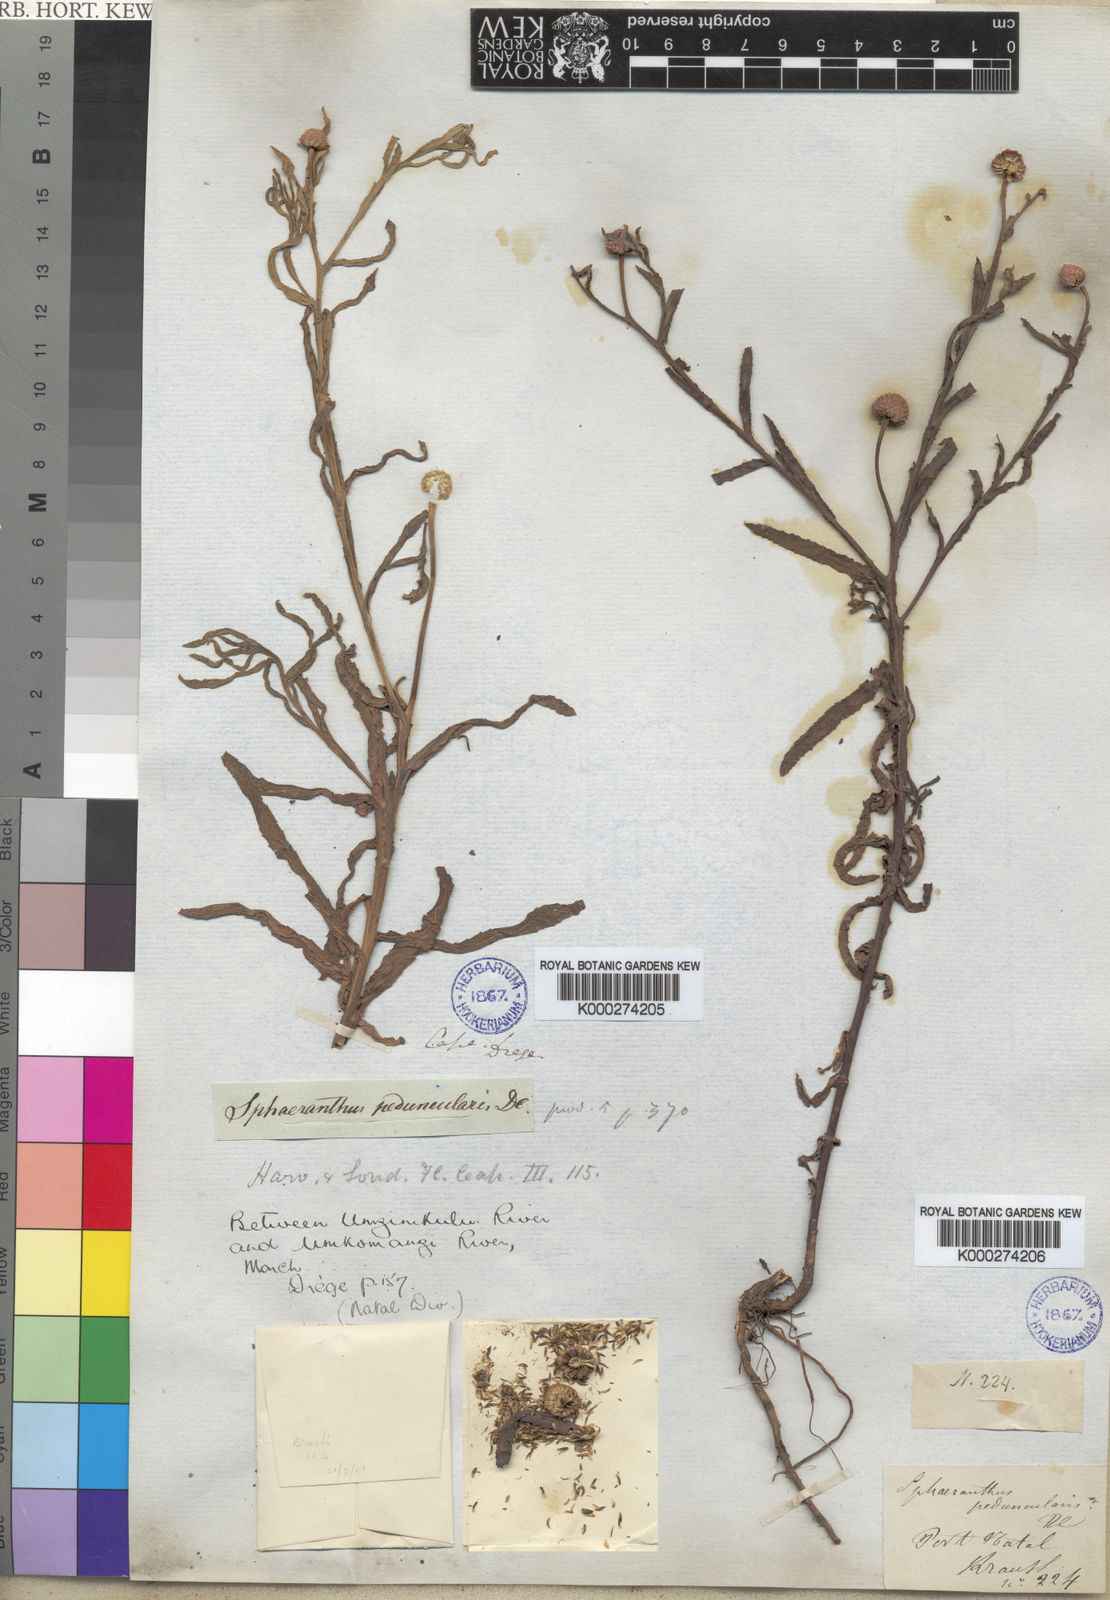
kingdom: Plantae
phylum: Tracheophyta
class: Magnoliopsida
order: Asterales
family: Asteraceae
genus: Sphaeranthus
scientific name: Sphaeranthus peduncularis
